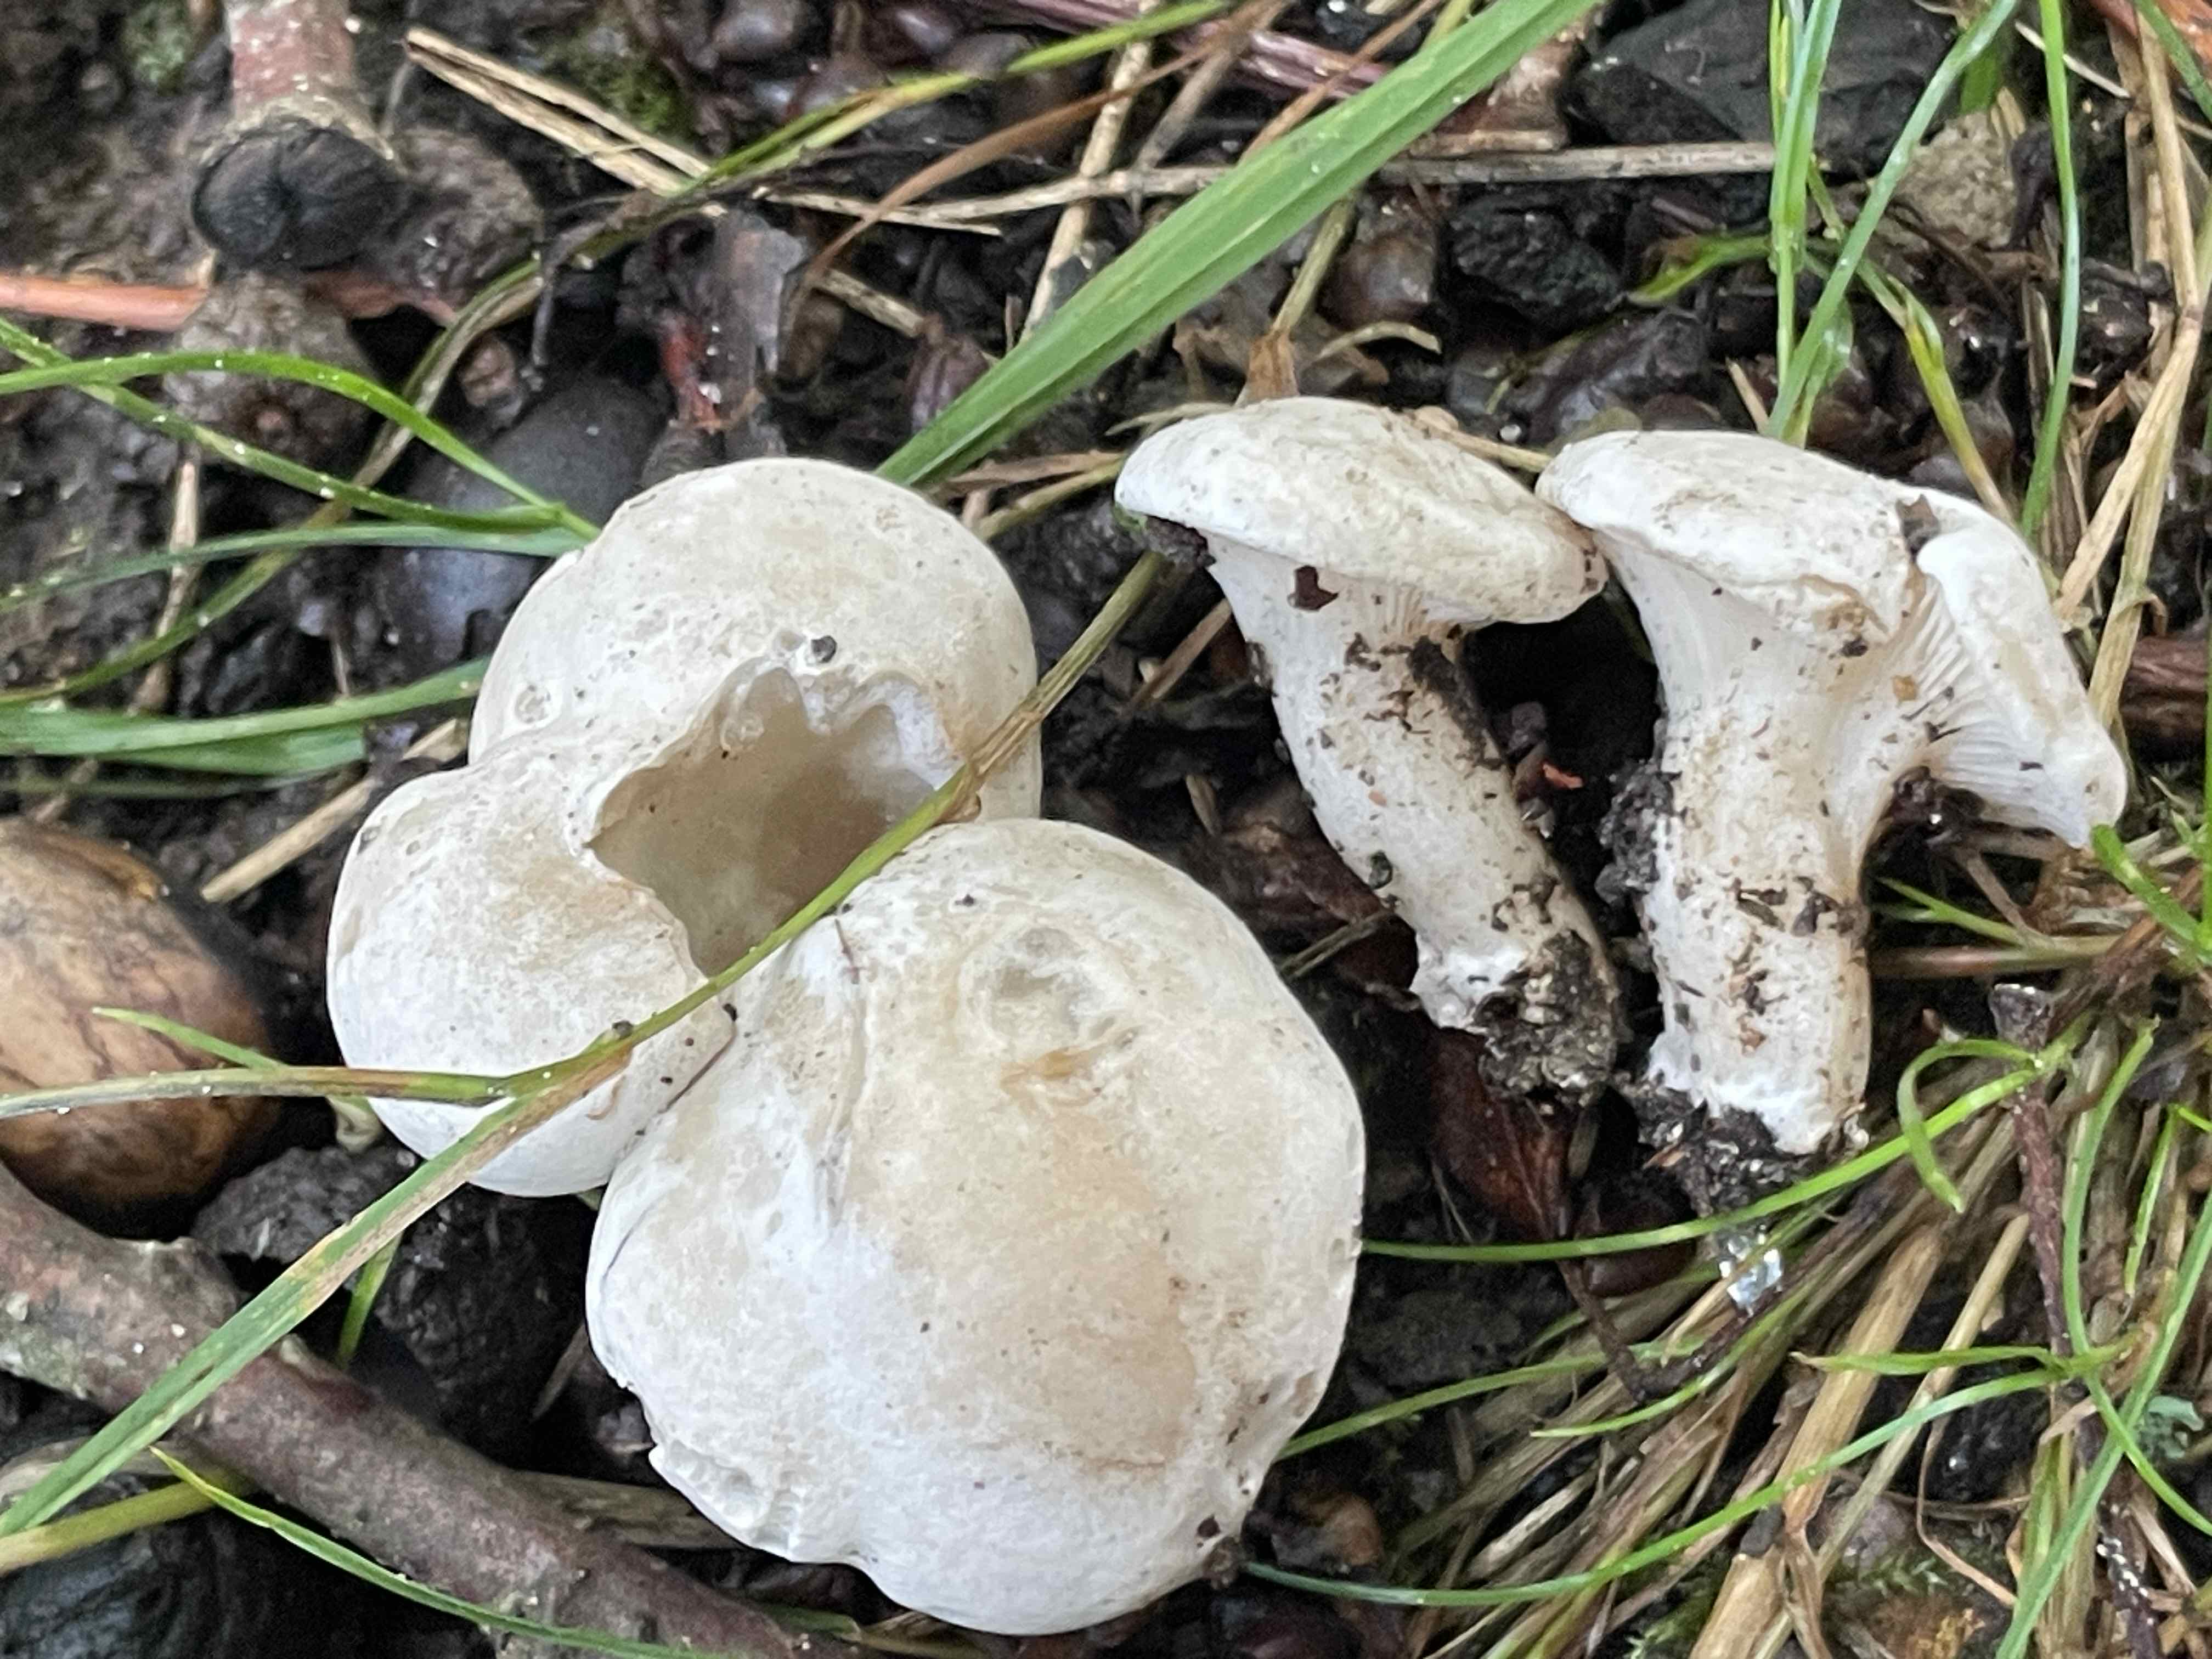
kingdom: Fungi
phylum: Basidiomycota
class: Agaricomycetes
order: Agaricales
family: Entolomataceae
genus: Clitopilus
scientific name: Clitopilus prunulus
